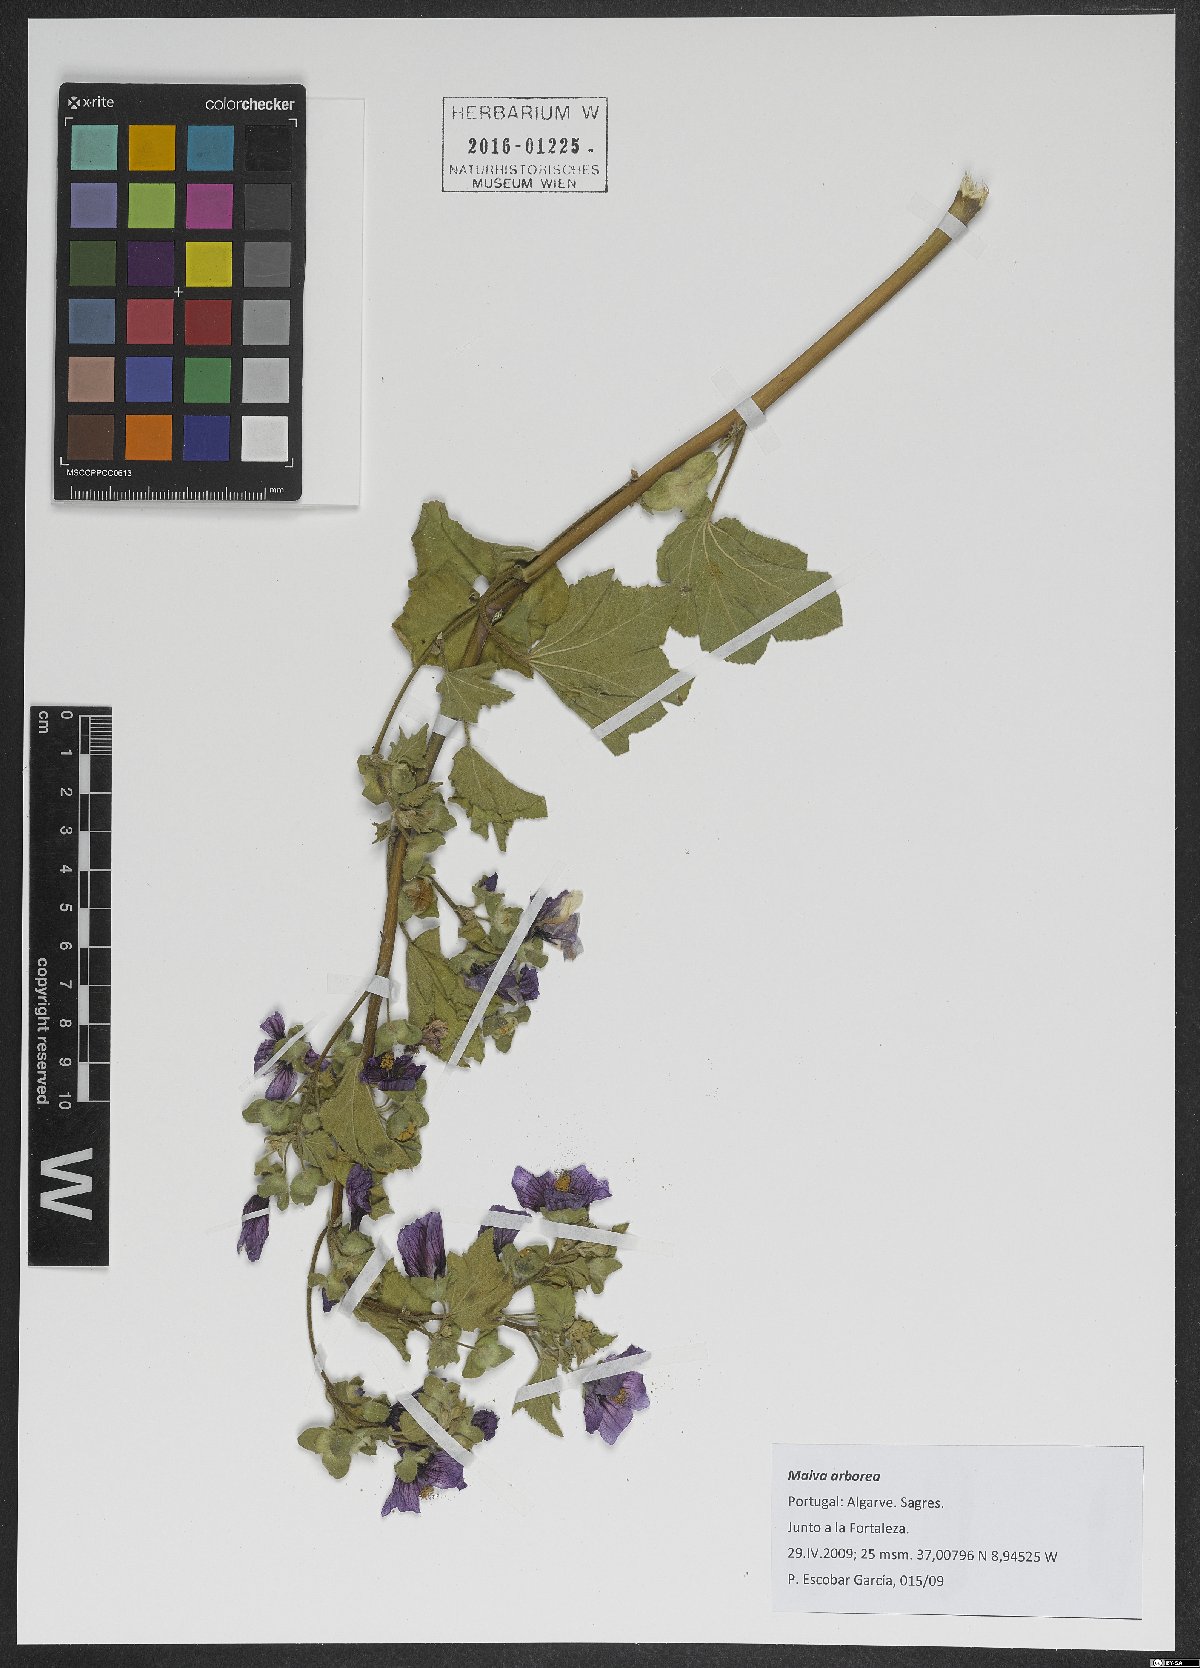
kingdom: Plantae
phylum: Tracheophyta
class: Magnoliopsida
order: Malvales
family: Malvaceae
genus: Malva
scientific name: Malva arborea
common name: Tree mallow
